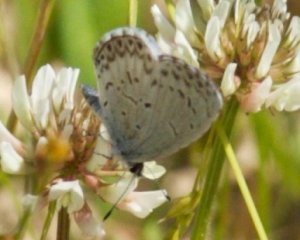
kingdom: Animalia
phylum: Arthropoda
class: Insecta
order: Lepidoptera
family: Lycaenidae
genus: Celastrina
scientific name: Celastrina
